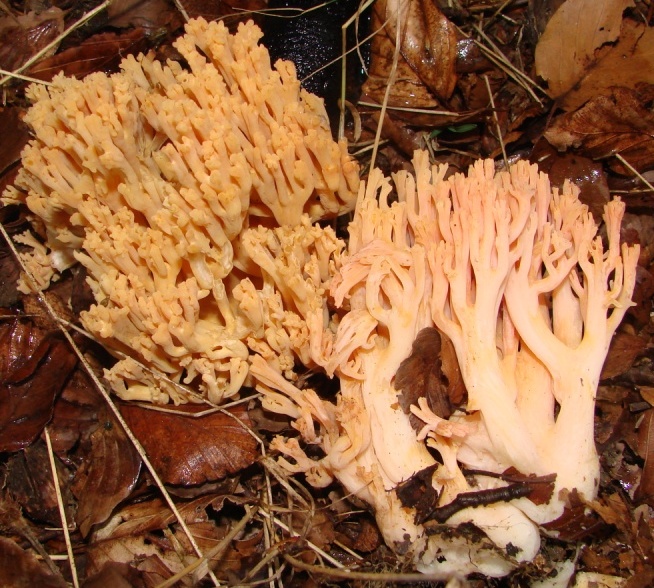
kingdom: Fungi
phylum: Basidiomycota
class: Agaricomycetes
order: Gomphales
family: Gomphaceae
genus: Ramaria
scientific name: Ramaria fagetorum
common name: abrikos-koralsvamp
